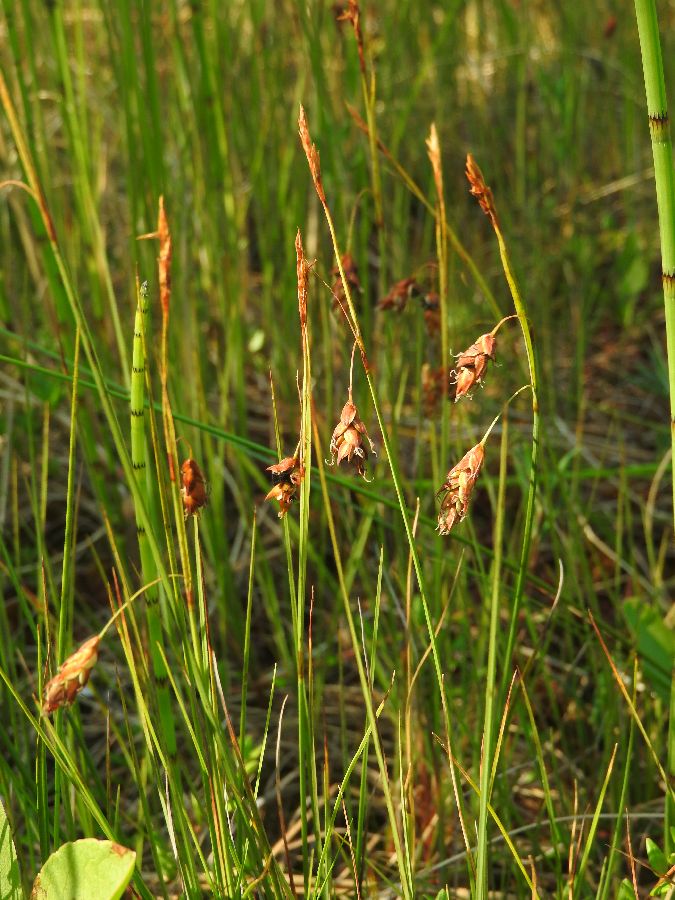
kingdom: Plantae
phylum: Tracheophyta
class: Liliopsida
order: Poales
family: Cyperaceae
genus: Carex
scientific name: Carex limosa
